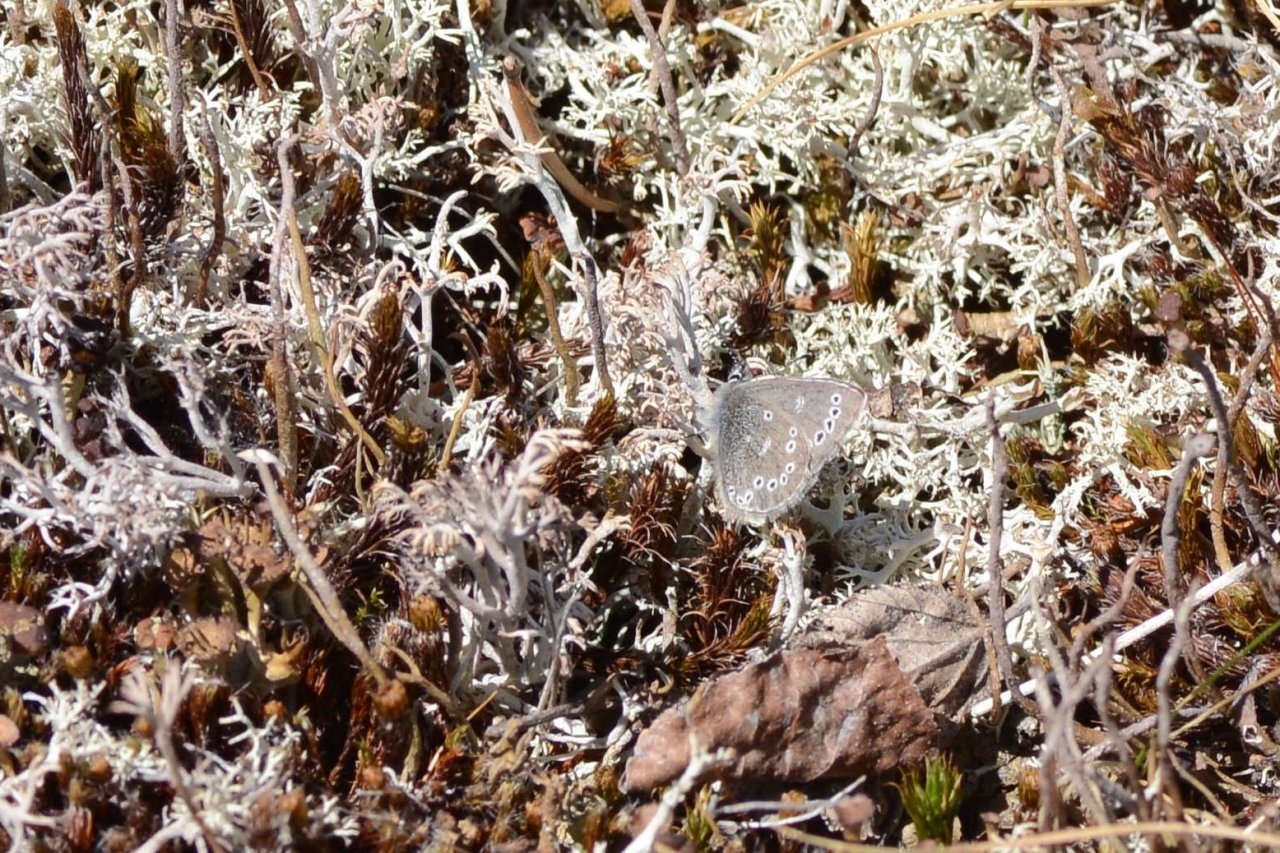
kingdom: Animalia
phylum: Arthropoda
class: Insecta
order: Lepidoptera
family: Lycaenidae
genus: Glaucopsyche
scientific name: Glaucopsyche lygdamus
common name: Silvery Blue
